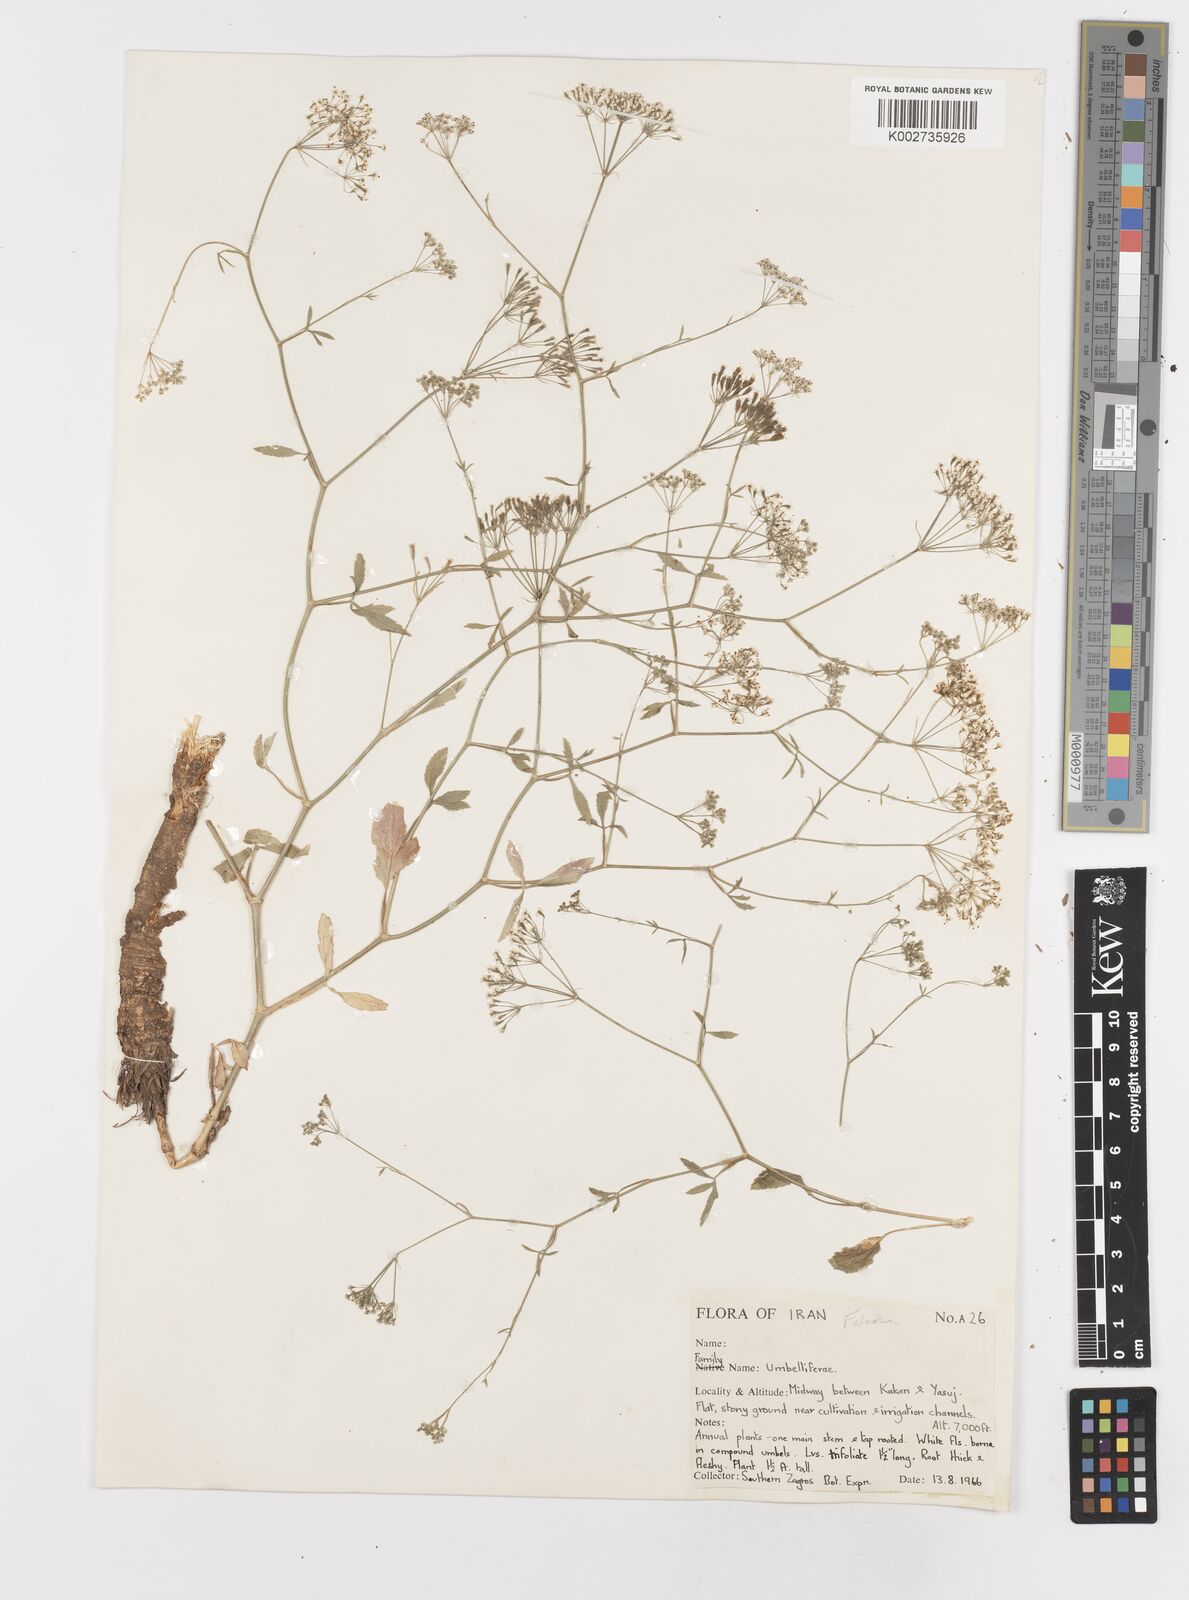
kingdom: Plantae
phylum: Tracheophyta
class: Magnoliopsida
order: Apiales
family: Apiaceae
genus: Falcaria
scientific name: Falcaria
